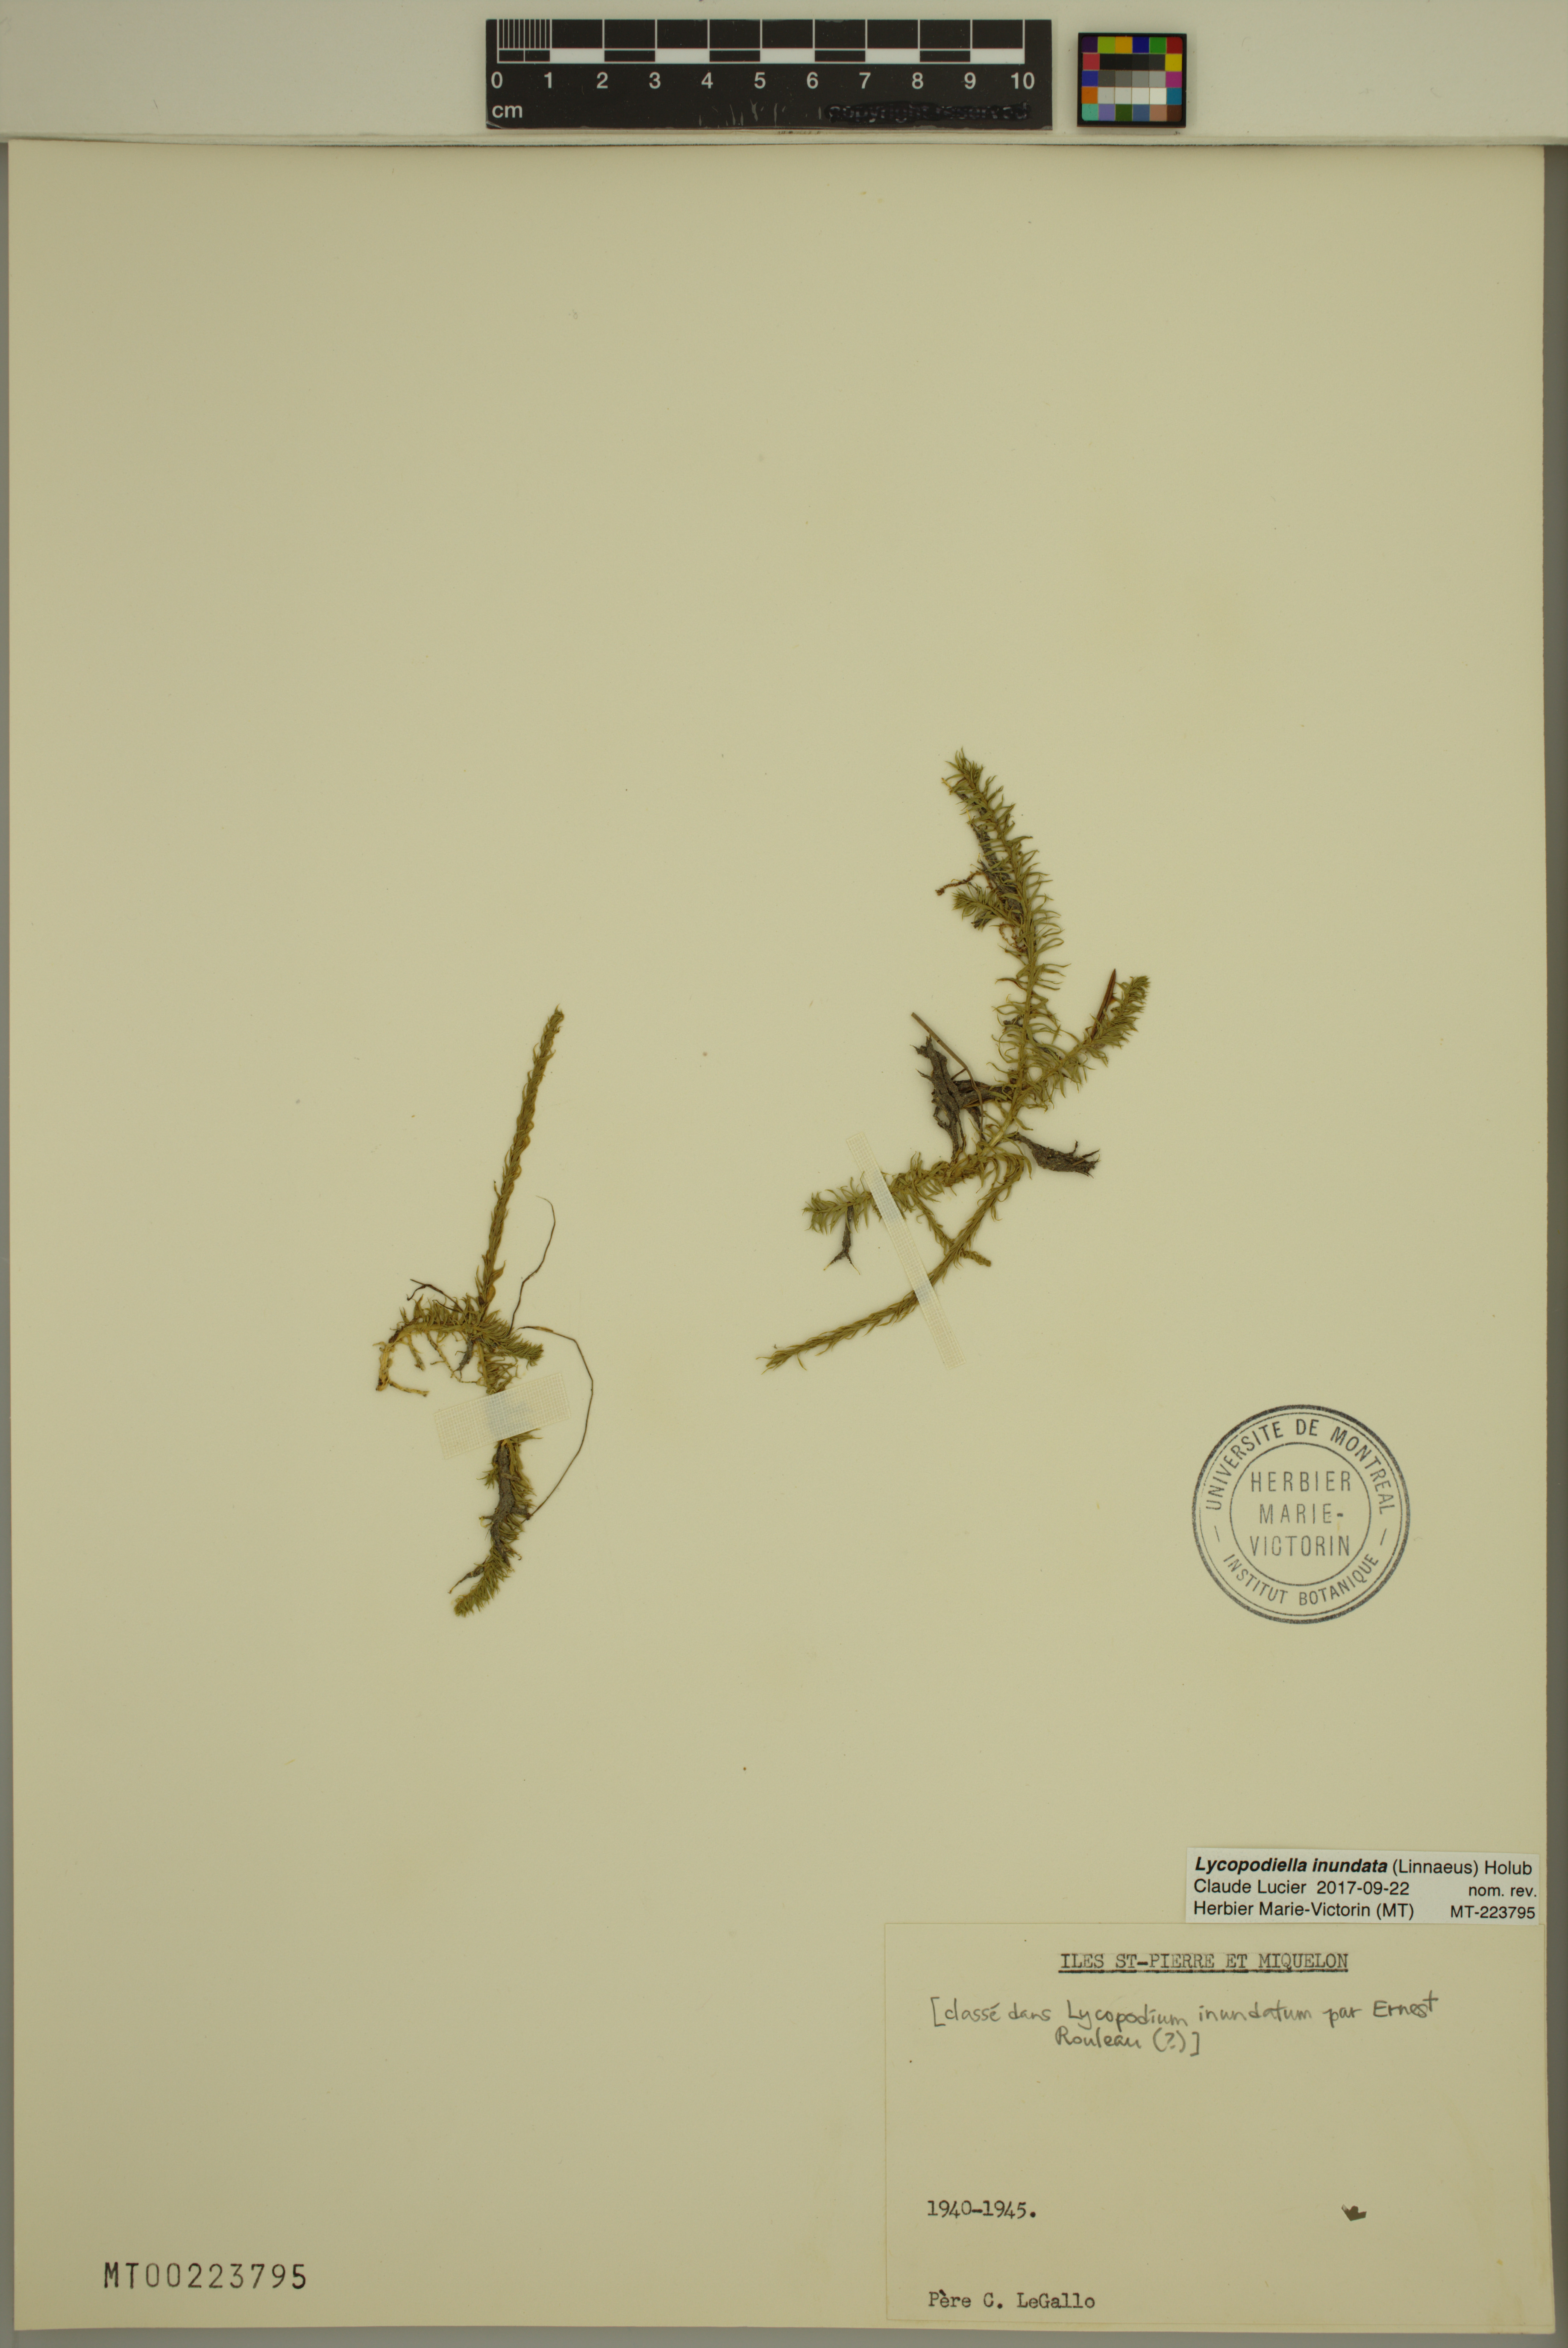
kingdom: Plantae
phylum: Tracheophyta
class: Lycopodiopsida
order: Lycopodiales
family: Lycopodiaceae
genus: Lycopodiella
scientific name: Lycopodiella inundata
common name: Marsh clubmoss
